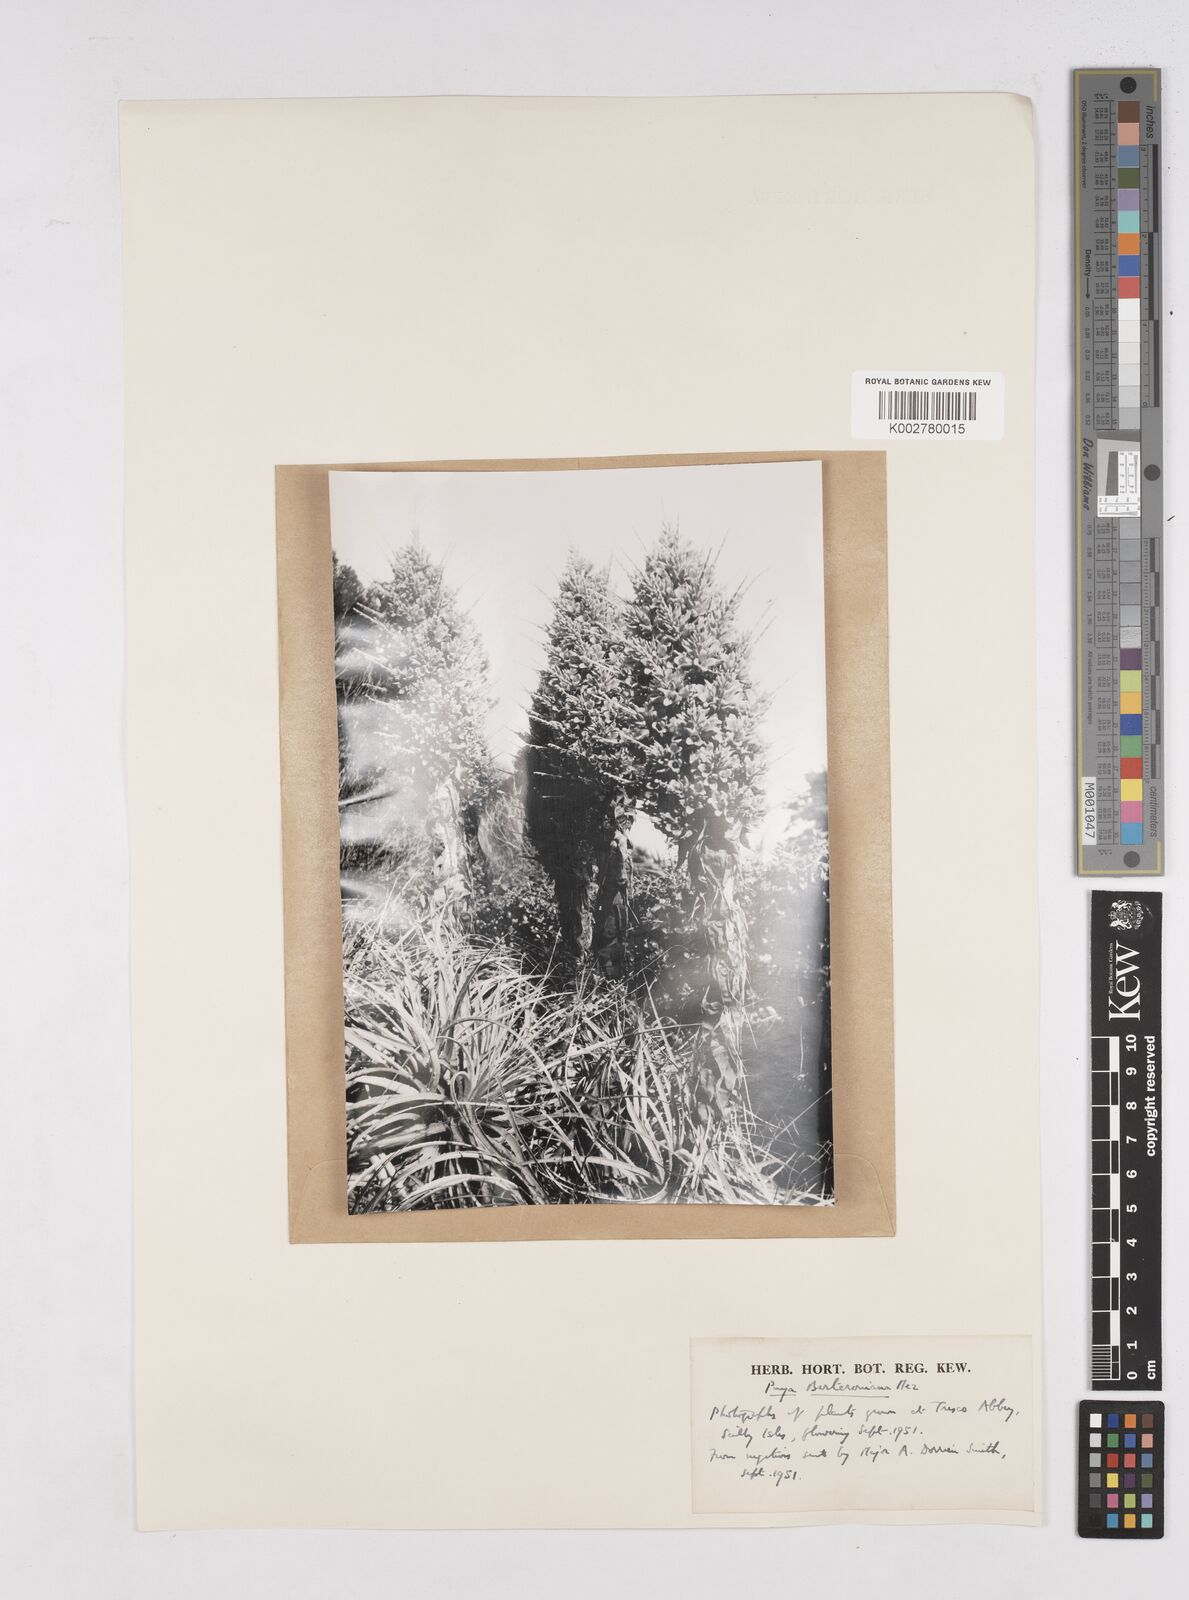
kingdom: Plantae
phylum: Tracheophyta
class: Liliopsida
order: Poales
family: Bromeliaceae
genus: Puya
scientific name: Puya berteroniana
